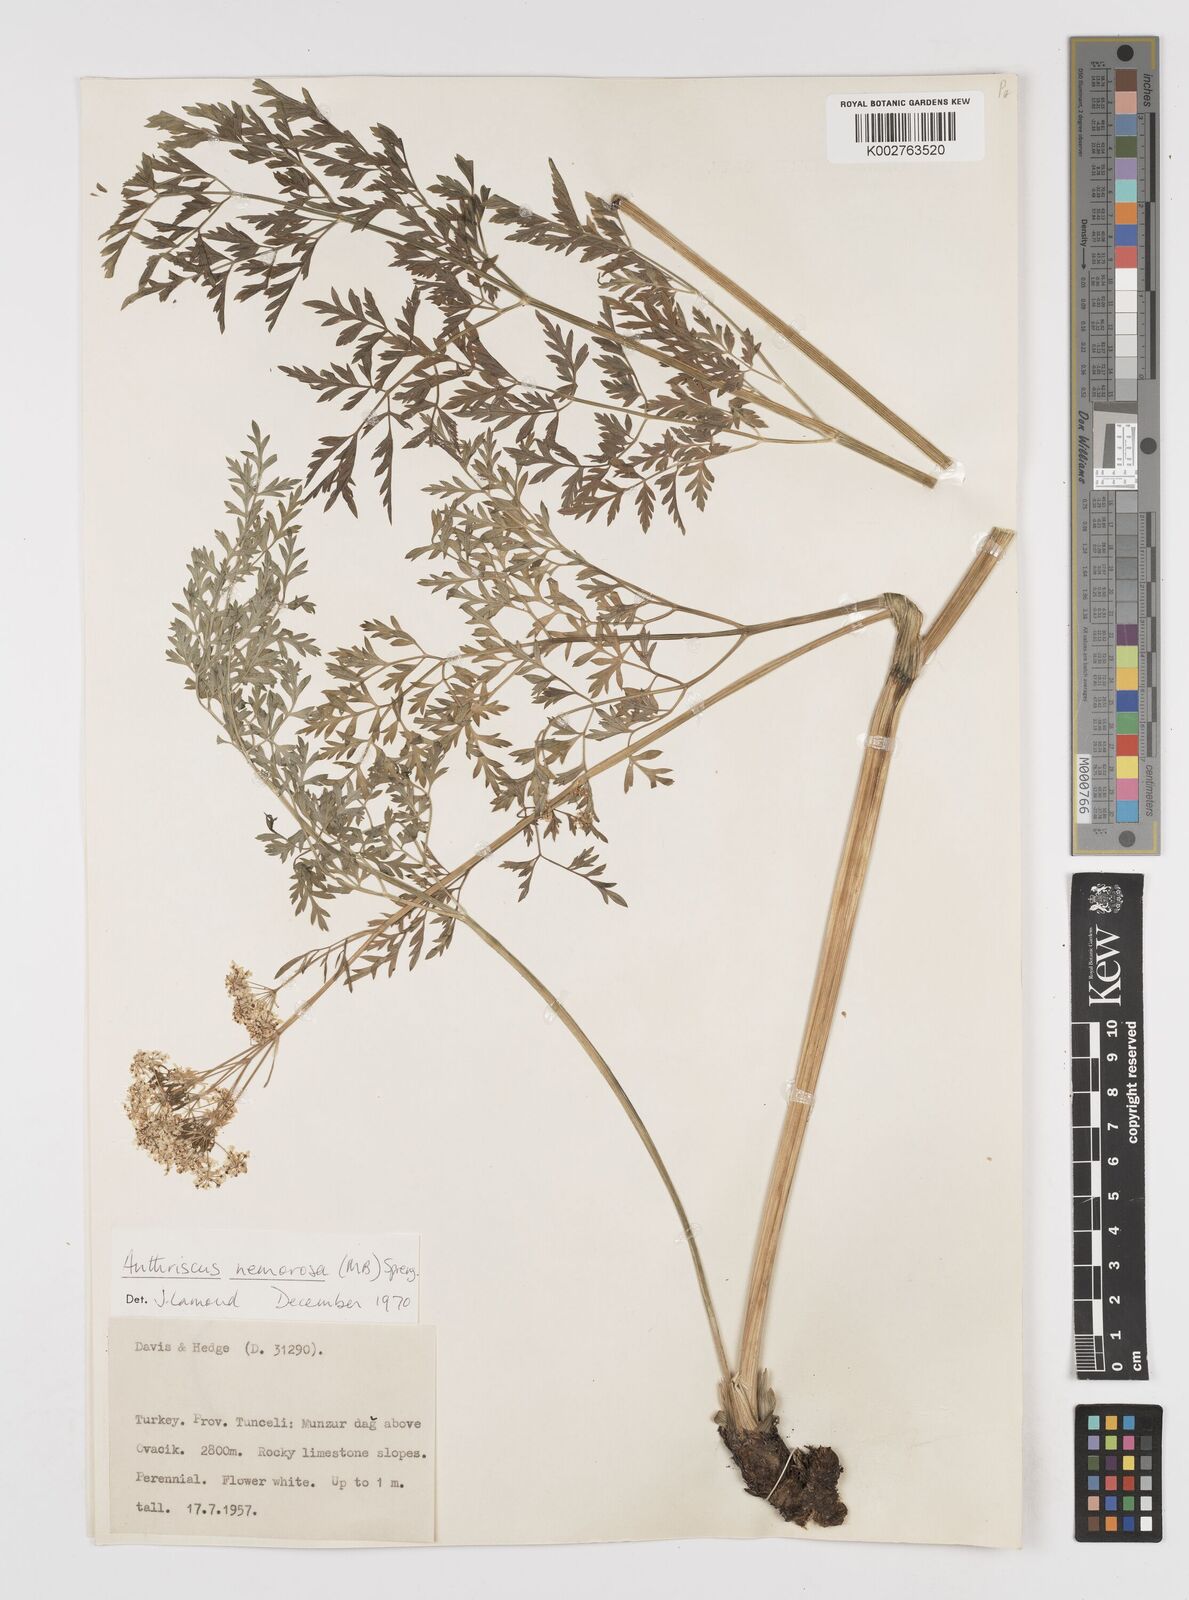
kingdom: Plantae
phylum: Tracheophyta
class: Magnoliopsida
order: Apiales
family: Apiaceae
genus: Anthriscus
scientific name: Anthriscus sylvestris
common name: Cow parsley
